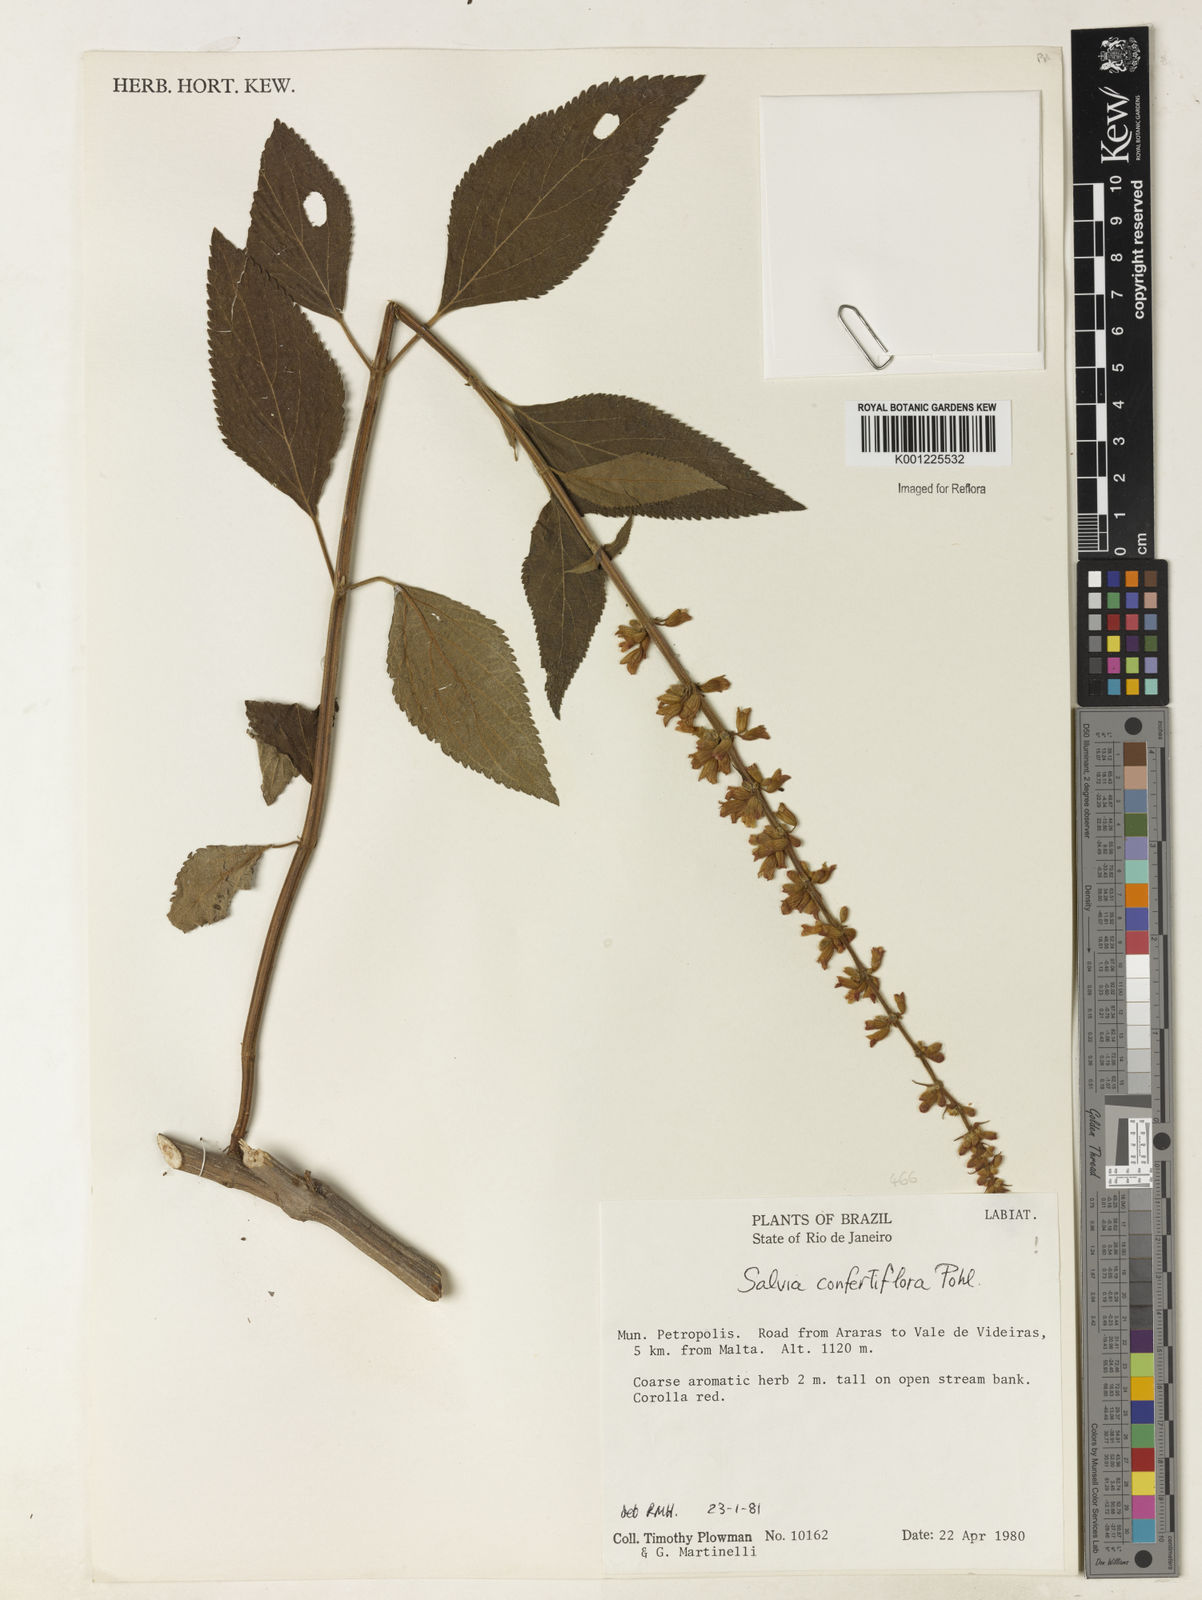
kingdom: Plantae
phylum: Tracheophyta
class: Magnoliopsida
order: Lamiales
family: Lamiaceae
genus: Salvia
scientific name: Salvia confertiflora
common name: Sabra-spike sage
